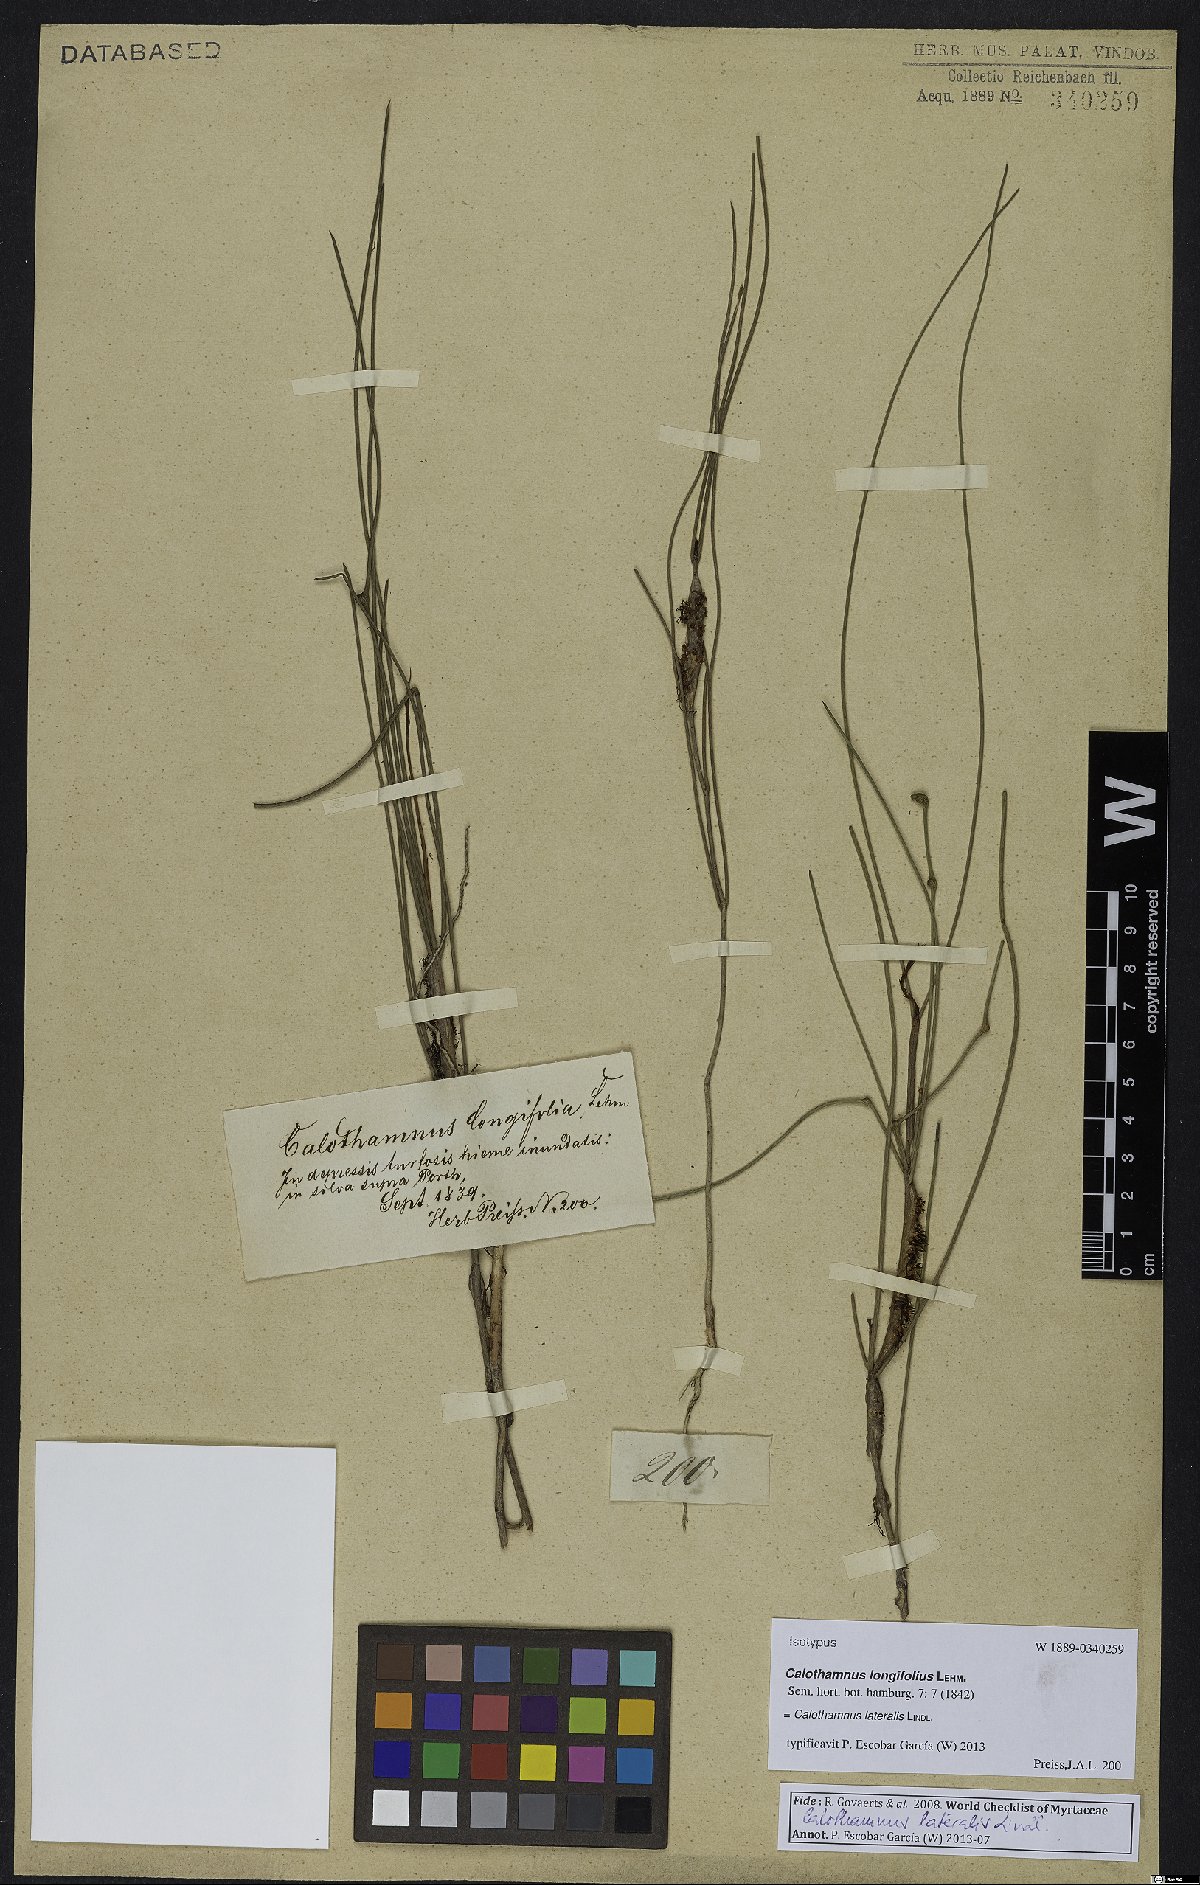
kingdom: Plantae
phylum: Tracheophyta
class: Magnoliopsida
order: Myrtales
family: Myrtaceae
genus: Melaleuca
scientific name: Melaleuca lateralis
